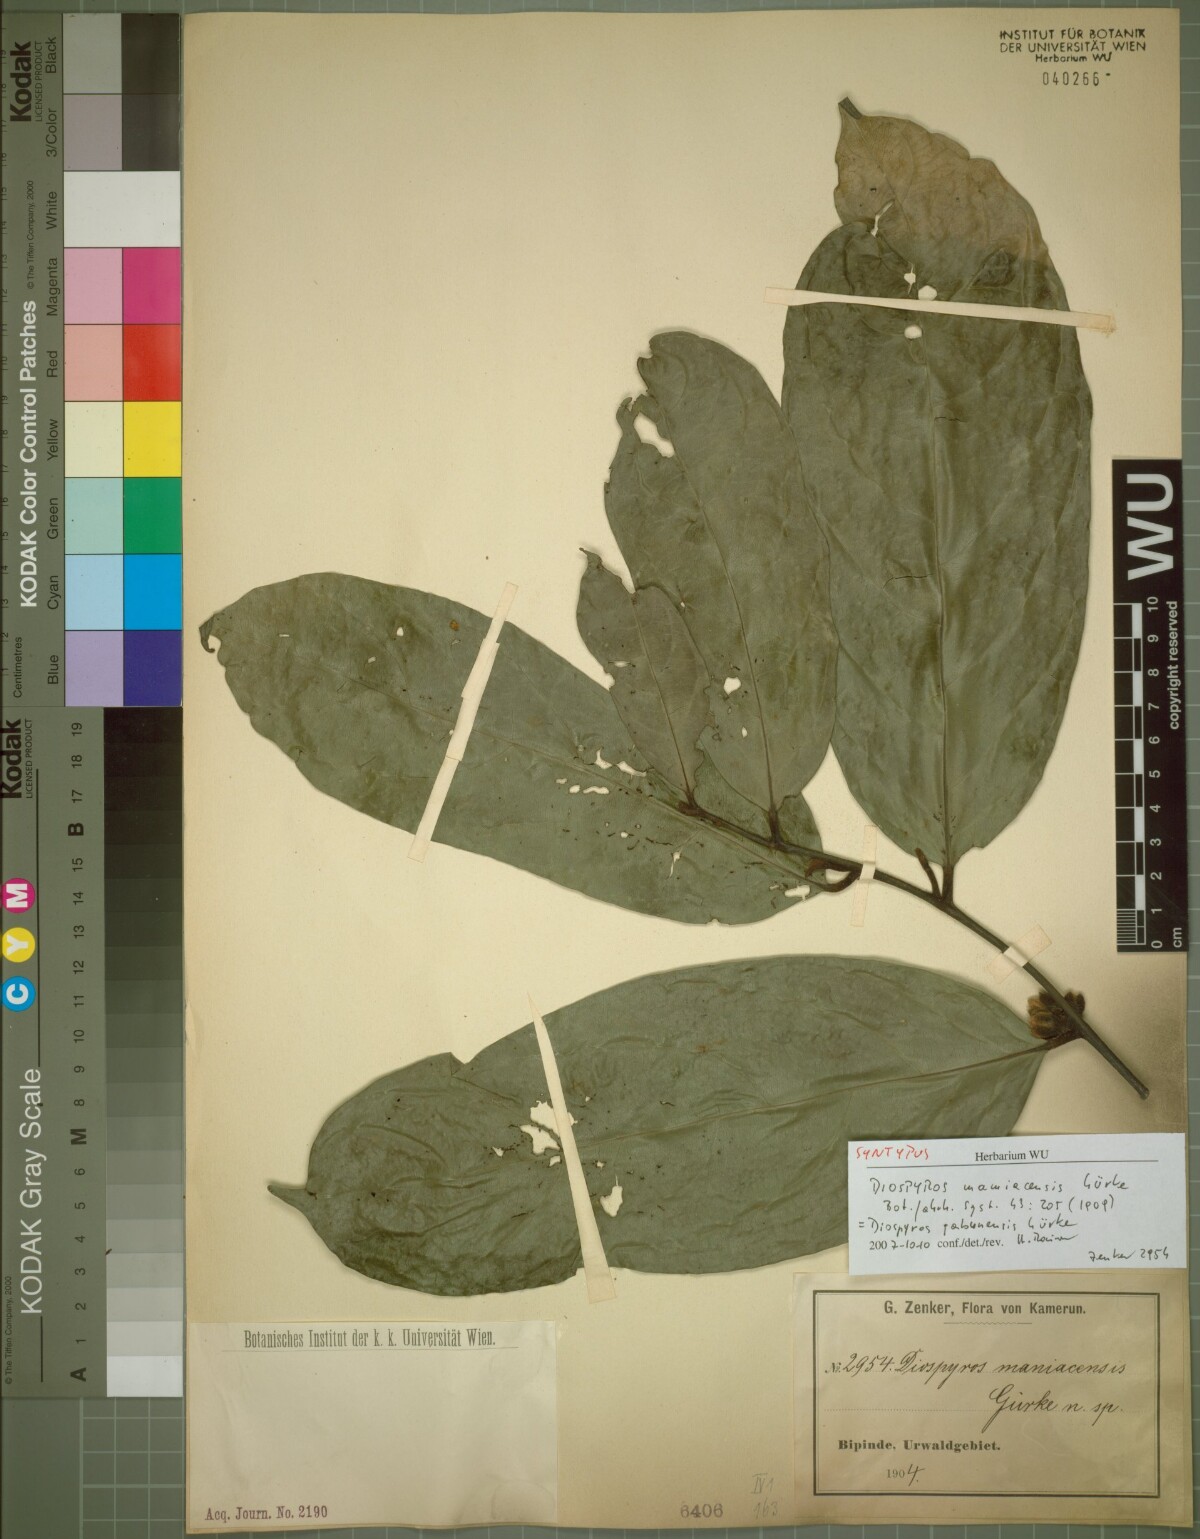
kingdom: Plantae
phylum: Tracheophyta
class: Magnoliopsida
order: Ericales
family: Ebenaceae
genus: Diospyros
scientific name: Diospyros gabunensis
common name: Flint bark tree
